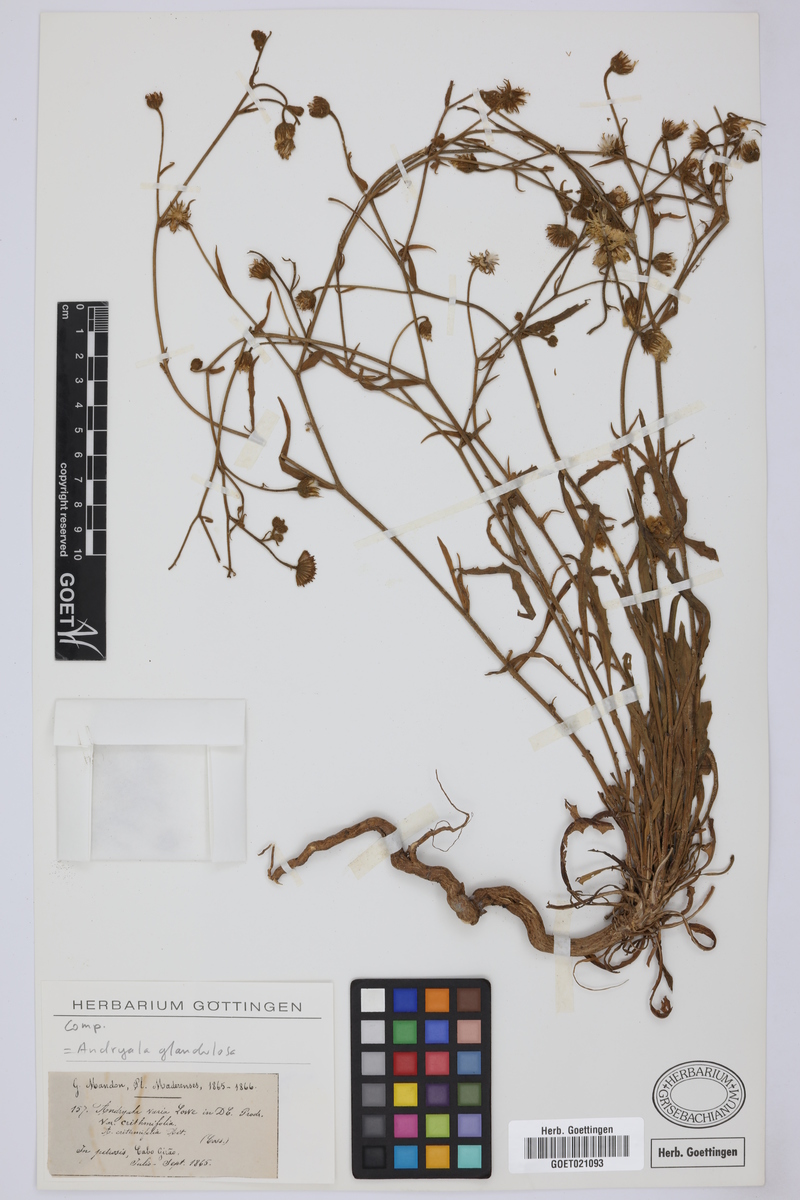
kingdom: Plantae
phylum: Tracheophyta
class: Magnoliopsida
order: Asterales
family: Asteraceae
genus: Andryala
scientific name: Andryala glandulosa
